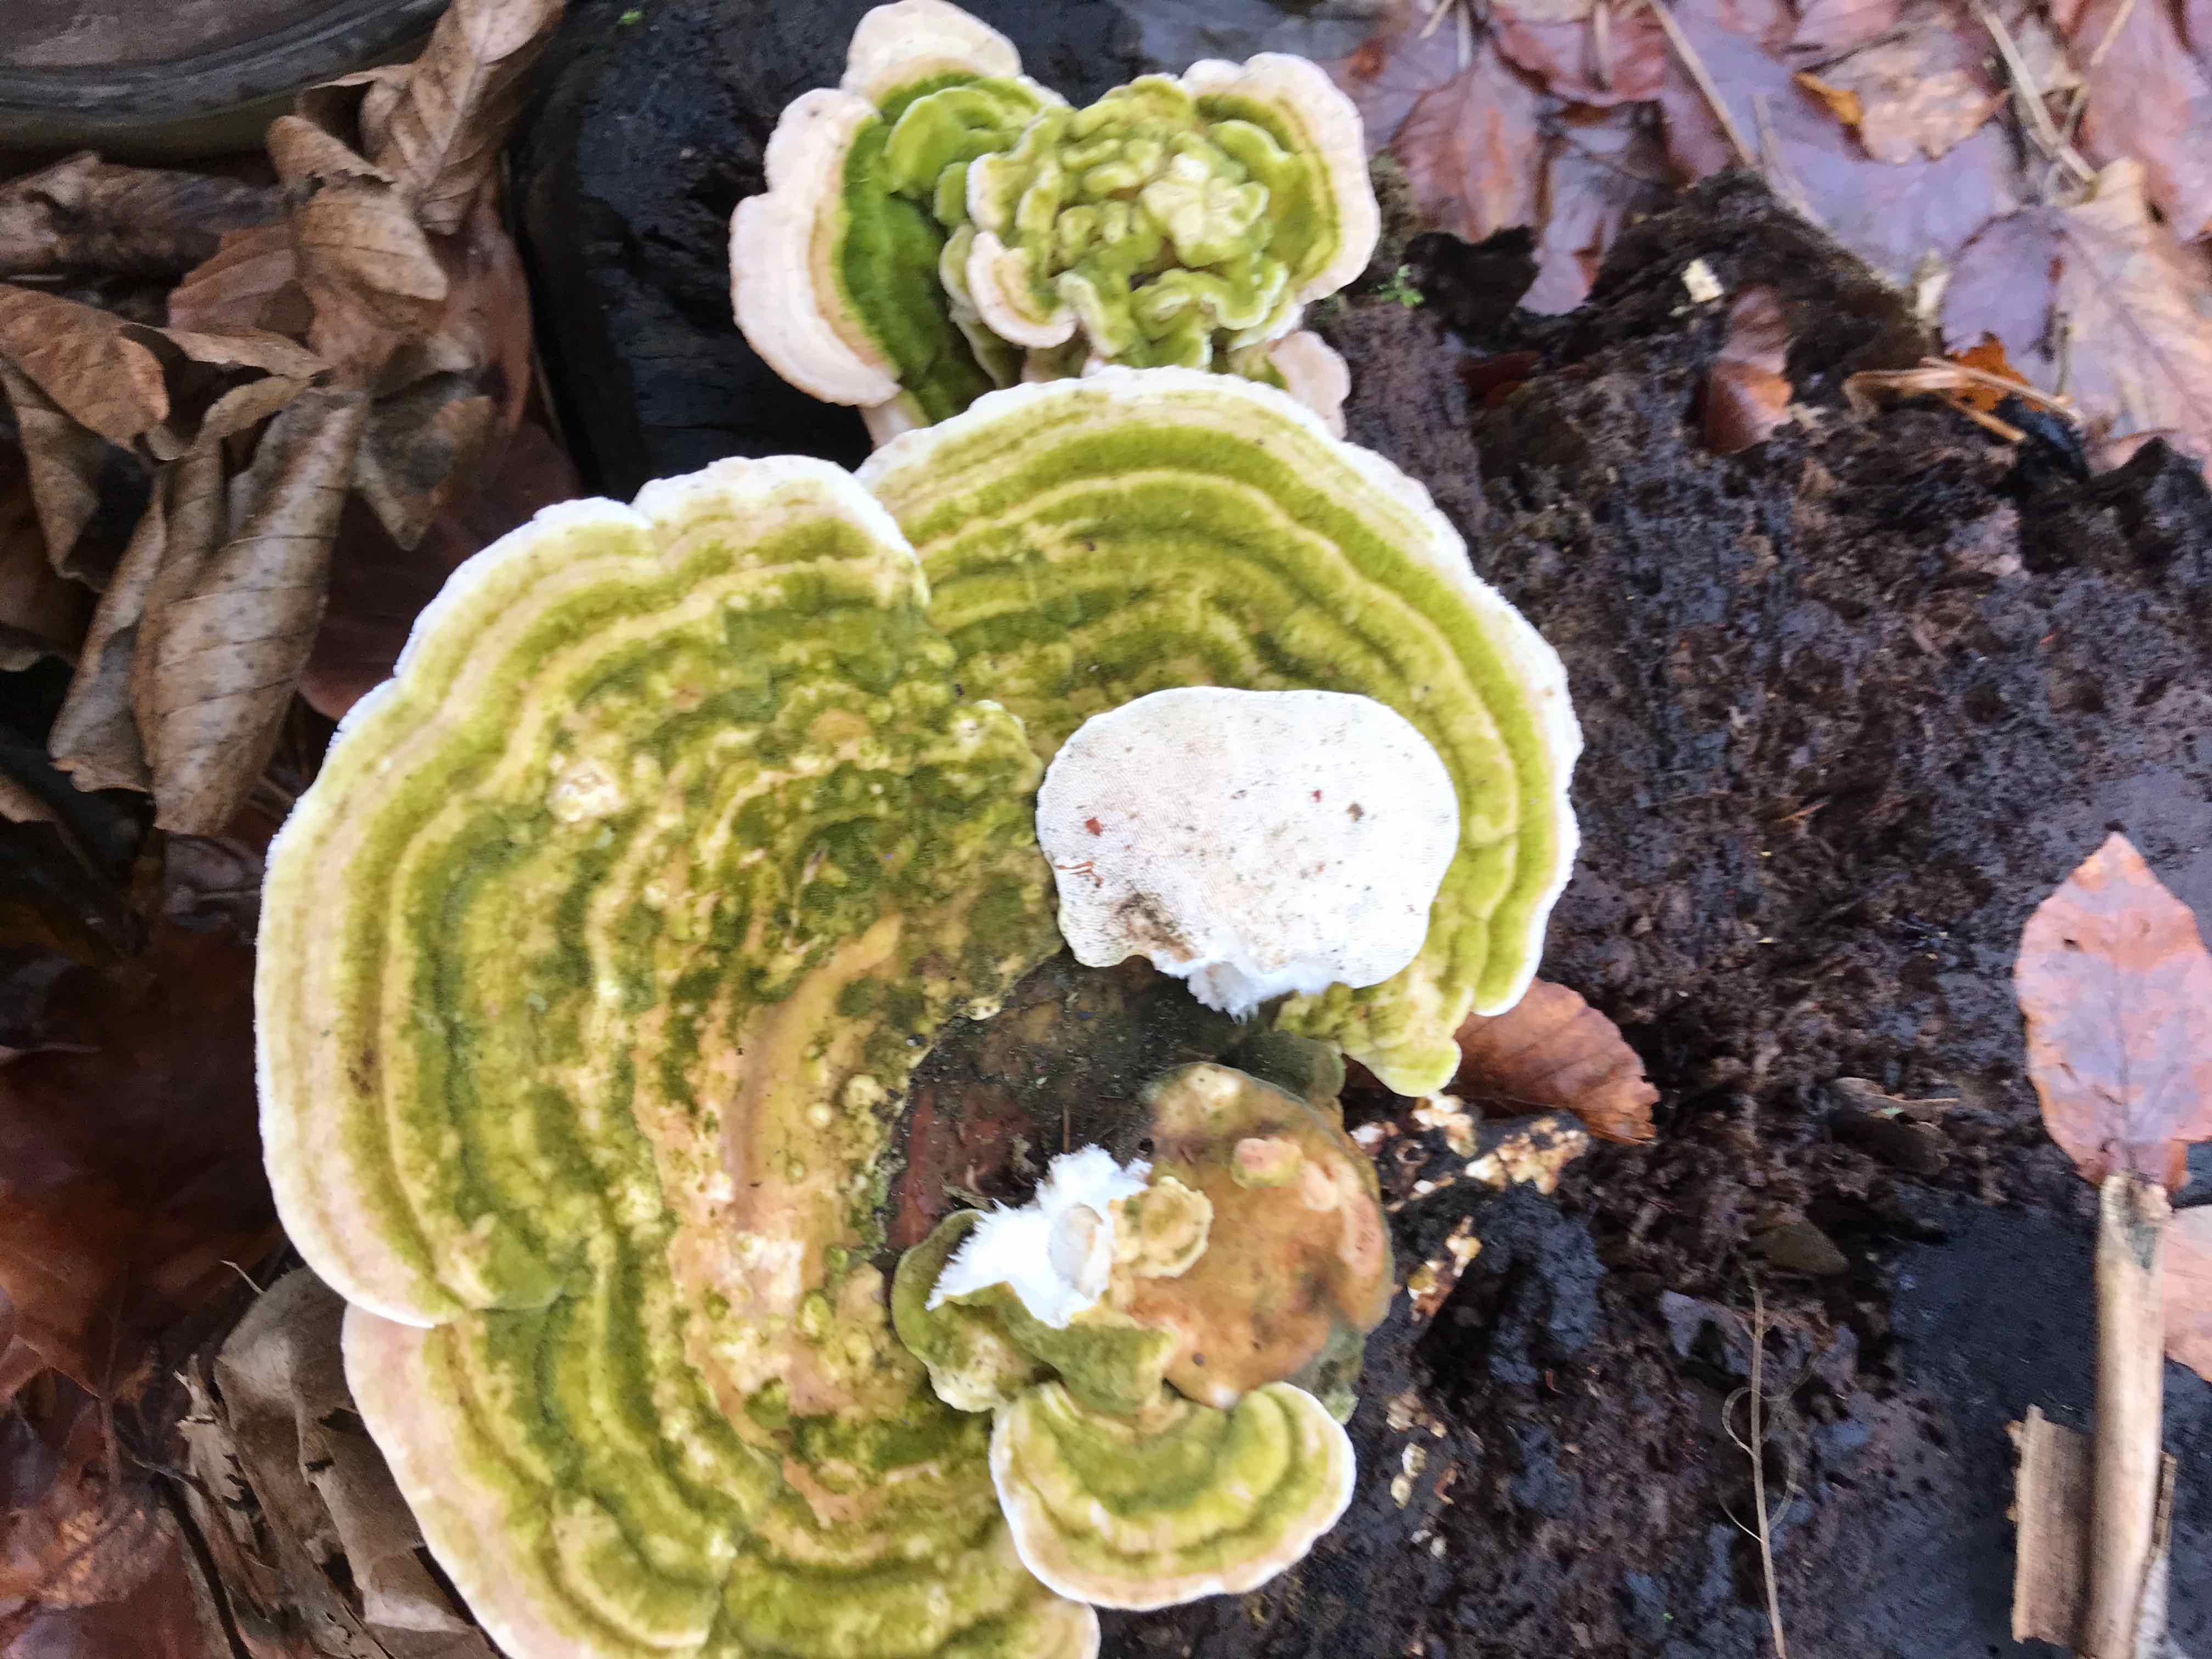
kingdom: Fungi
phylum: Basidiomycota
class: Agaricomycetes
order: Polyporales
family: Polyporaceae
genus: Trametes
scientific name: Trametes gibbosa
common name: puklet læderporesvamp
